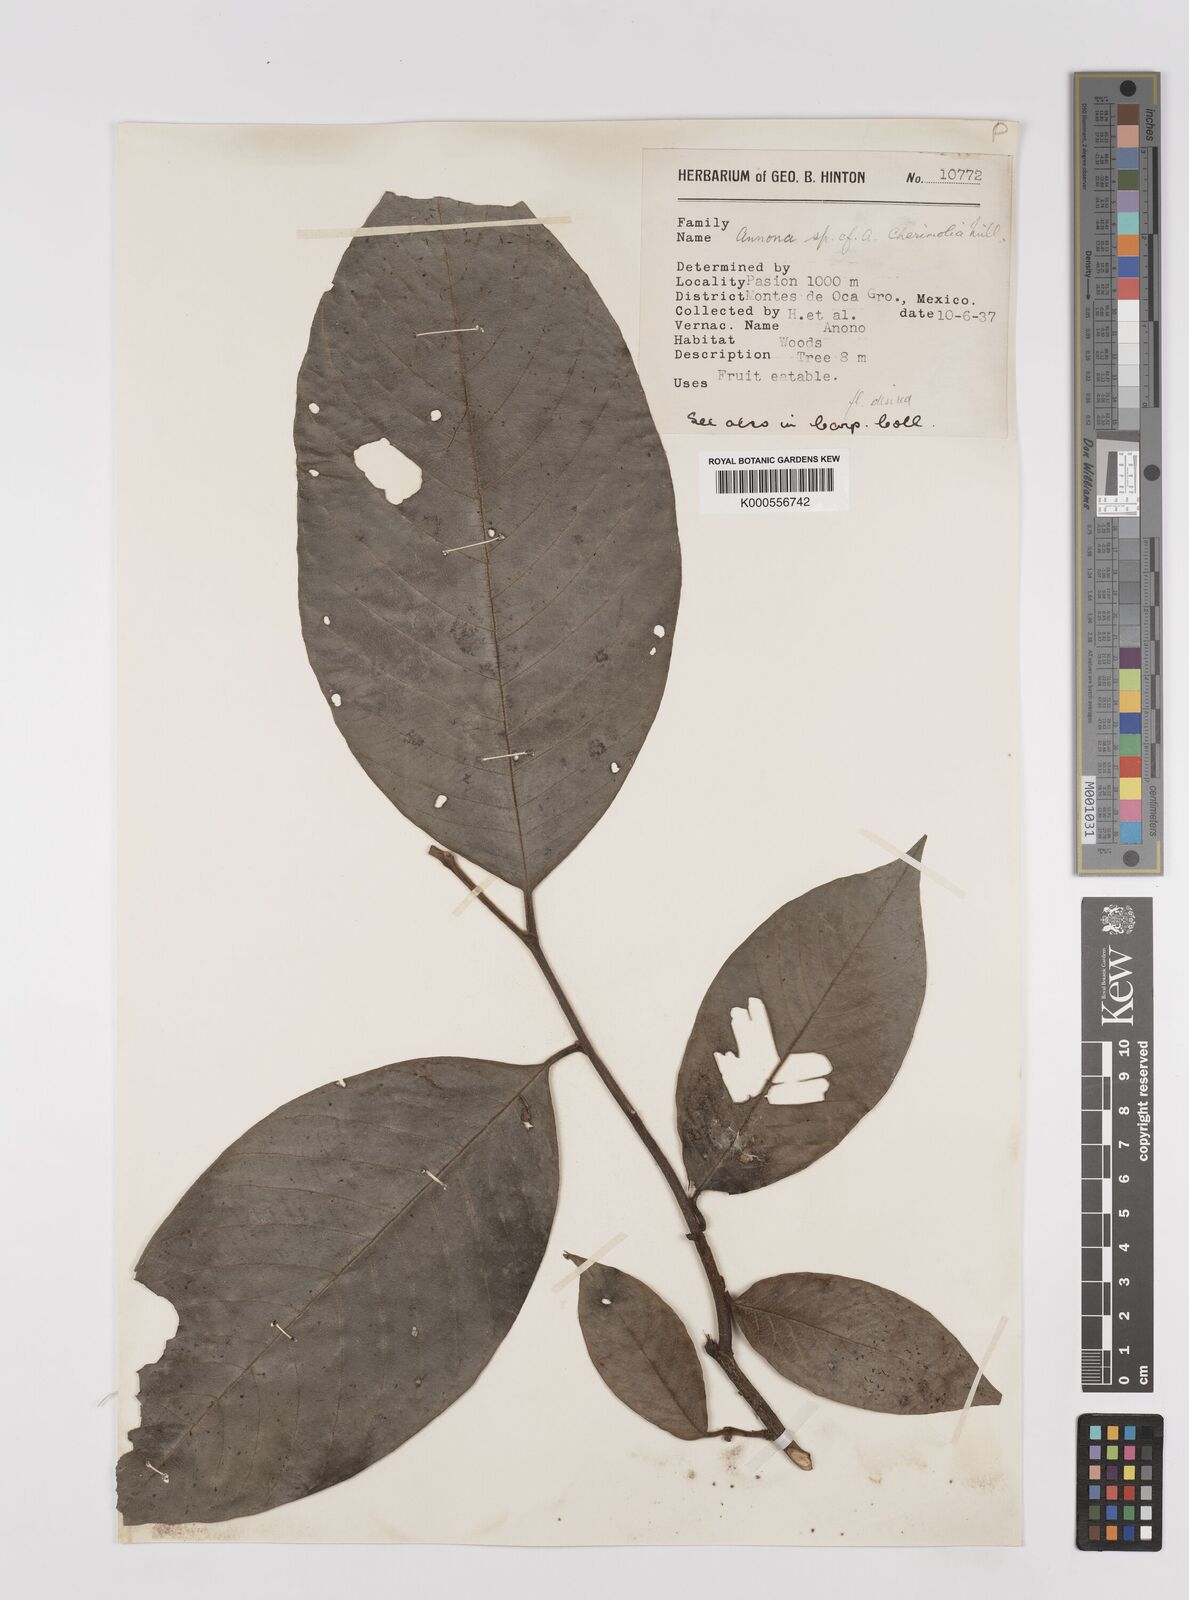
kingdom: Plantae
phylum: Tracheophyta
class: Magnoliopsida
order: Magnoliales
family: Annonaceae
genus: Annona
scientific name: Annona cherimola
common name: Cherimoya
